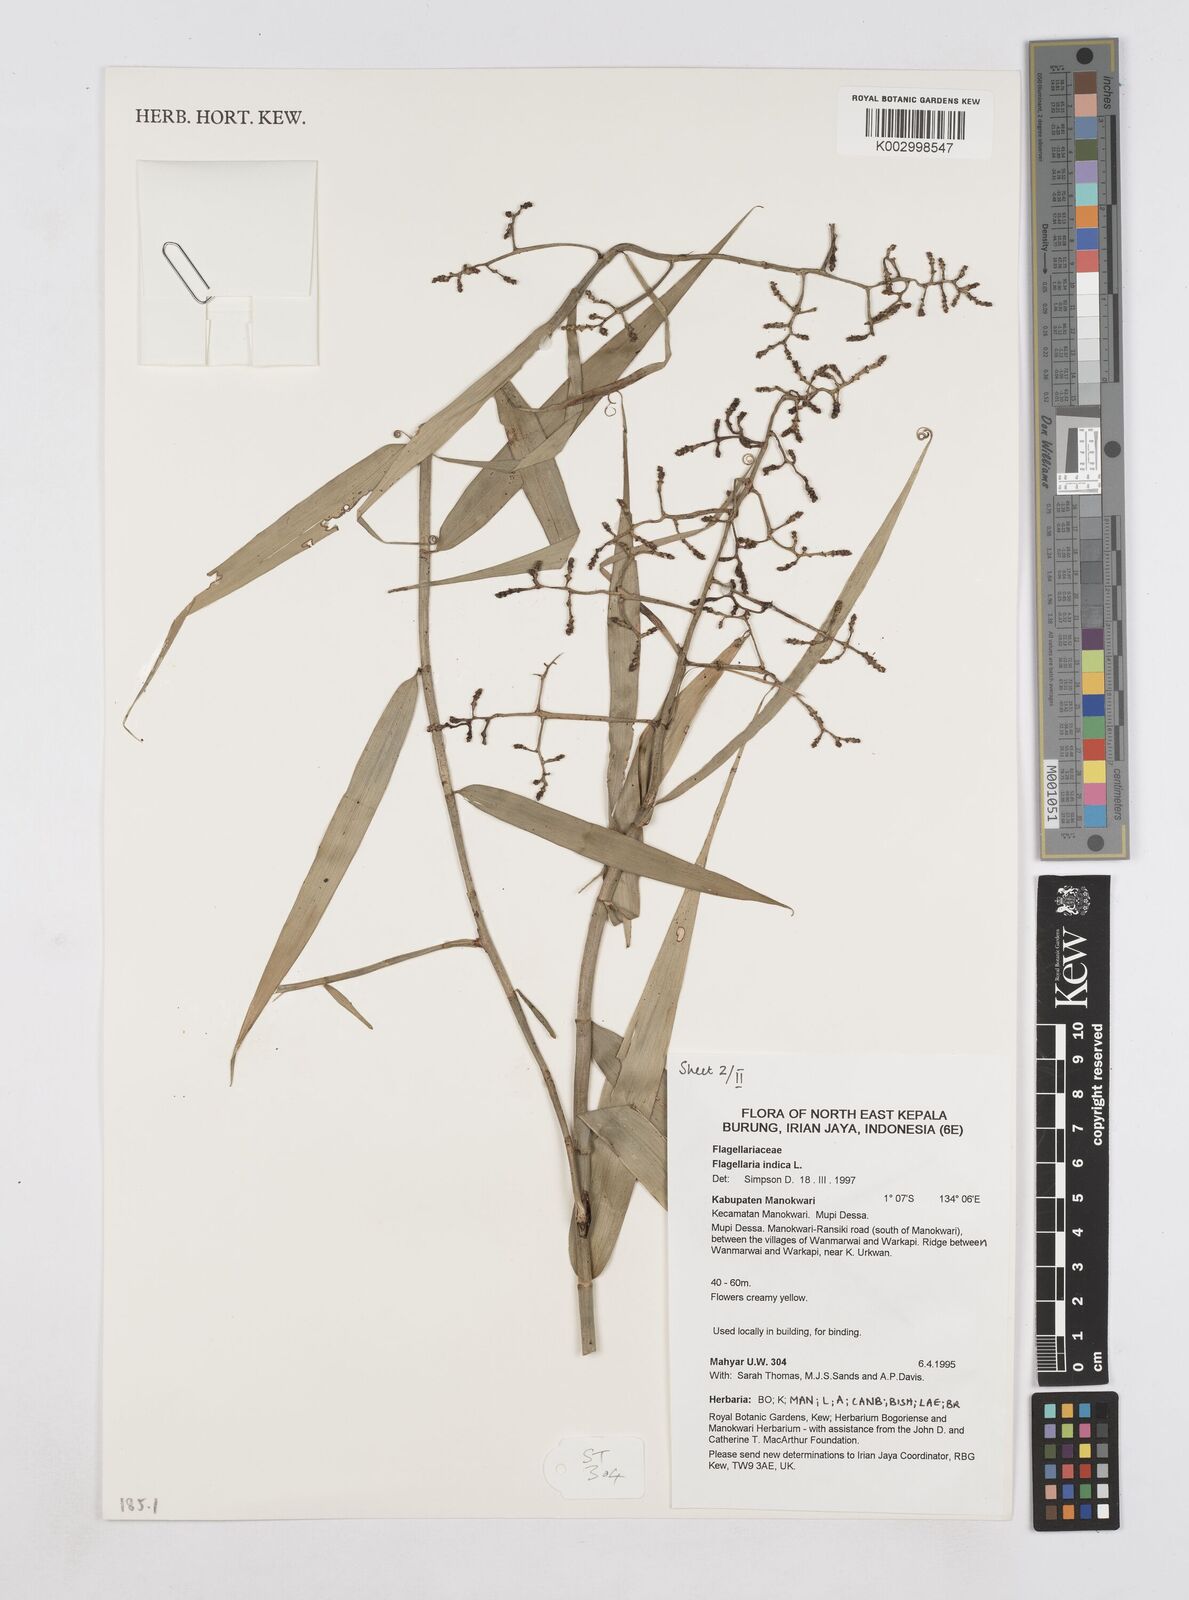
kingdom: Plantae
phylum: Tracheophyta
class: Liliopsida
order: Poales
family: Flagellariaceae
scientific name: Flagellariaceae
